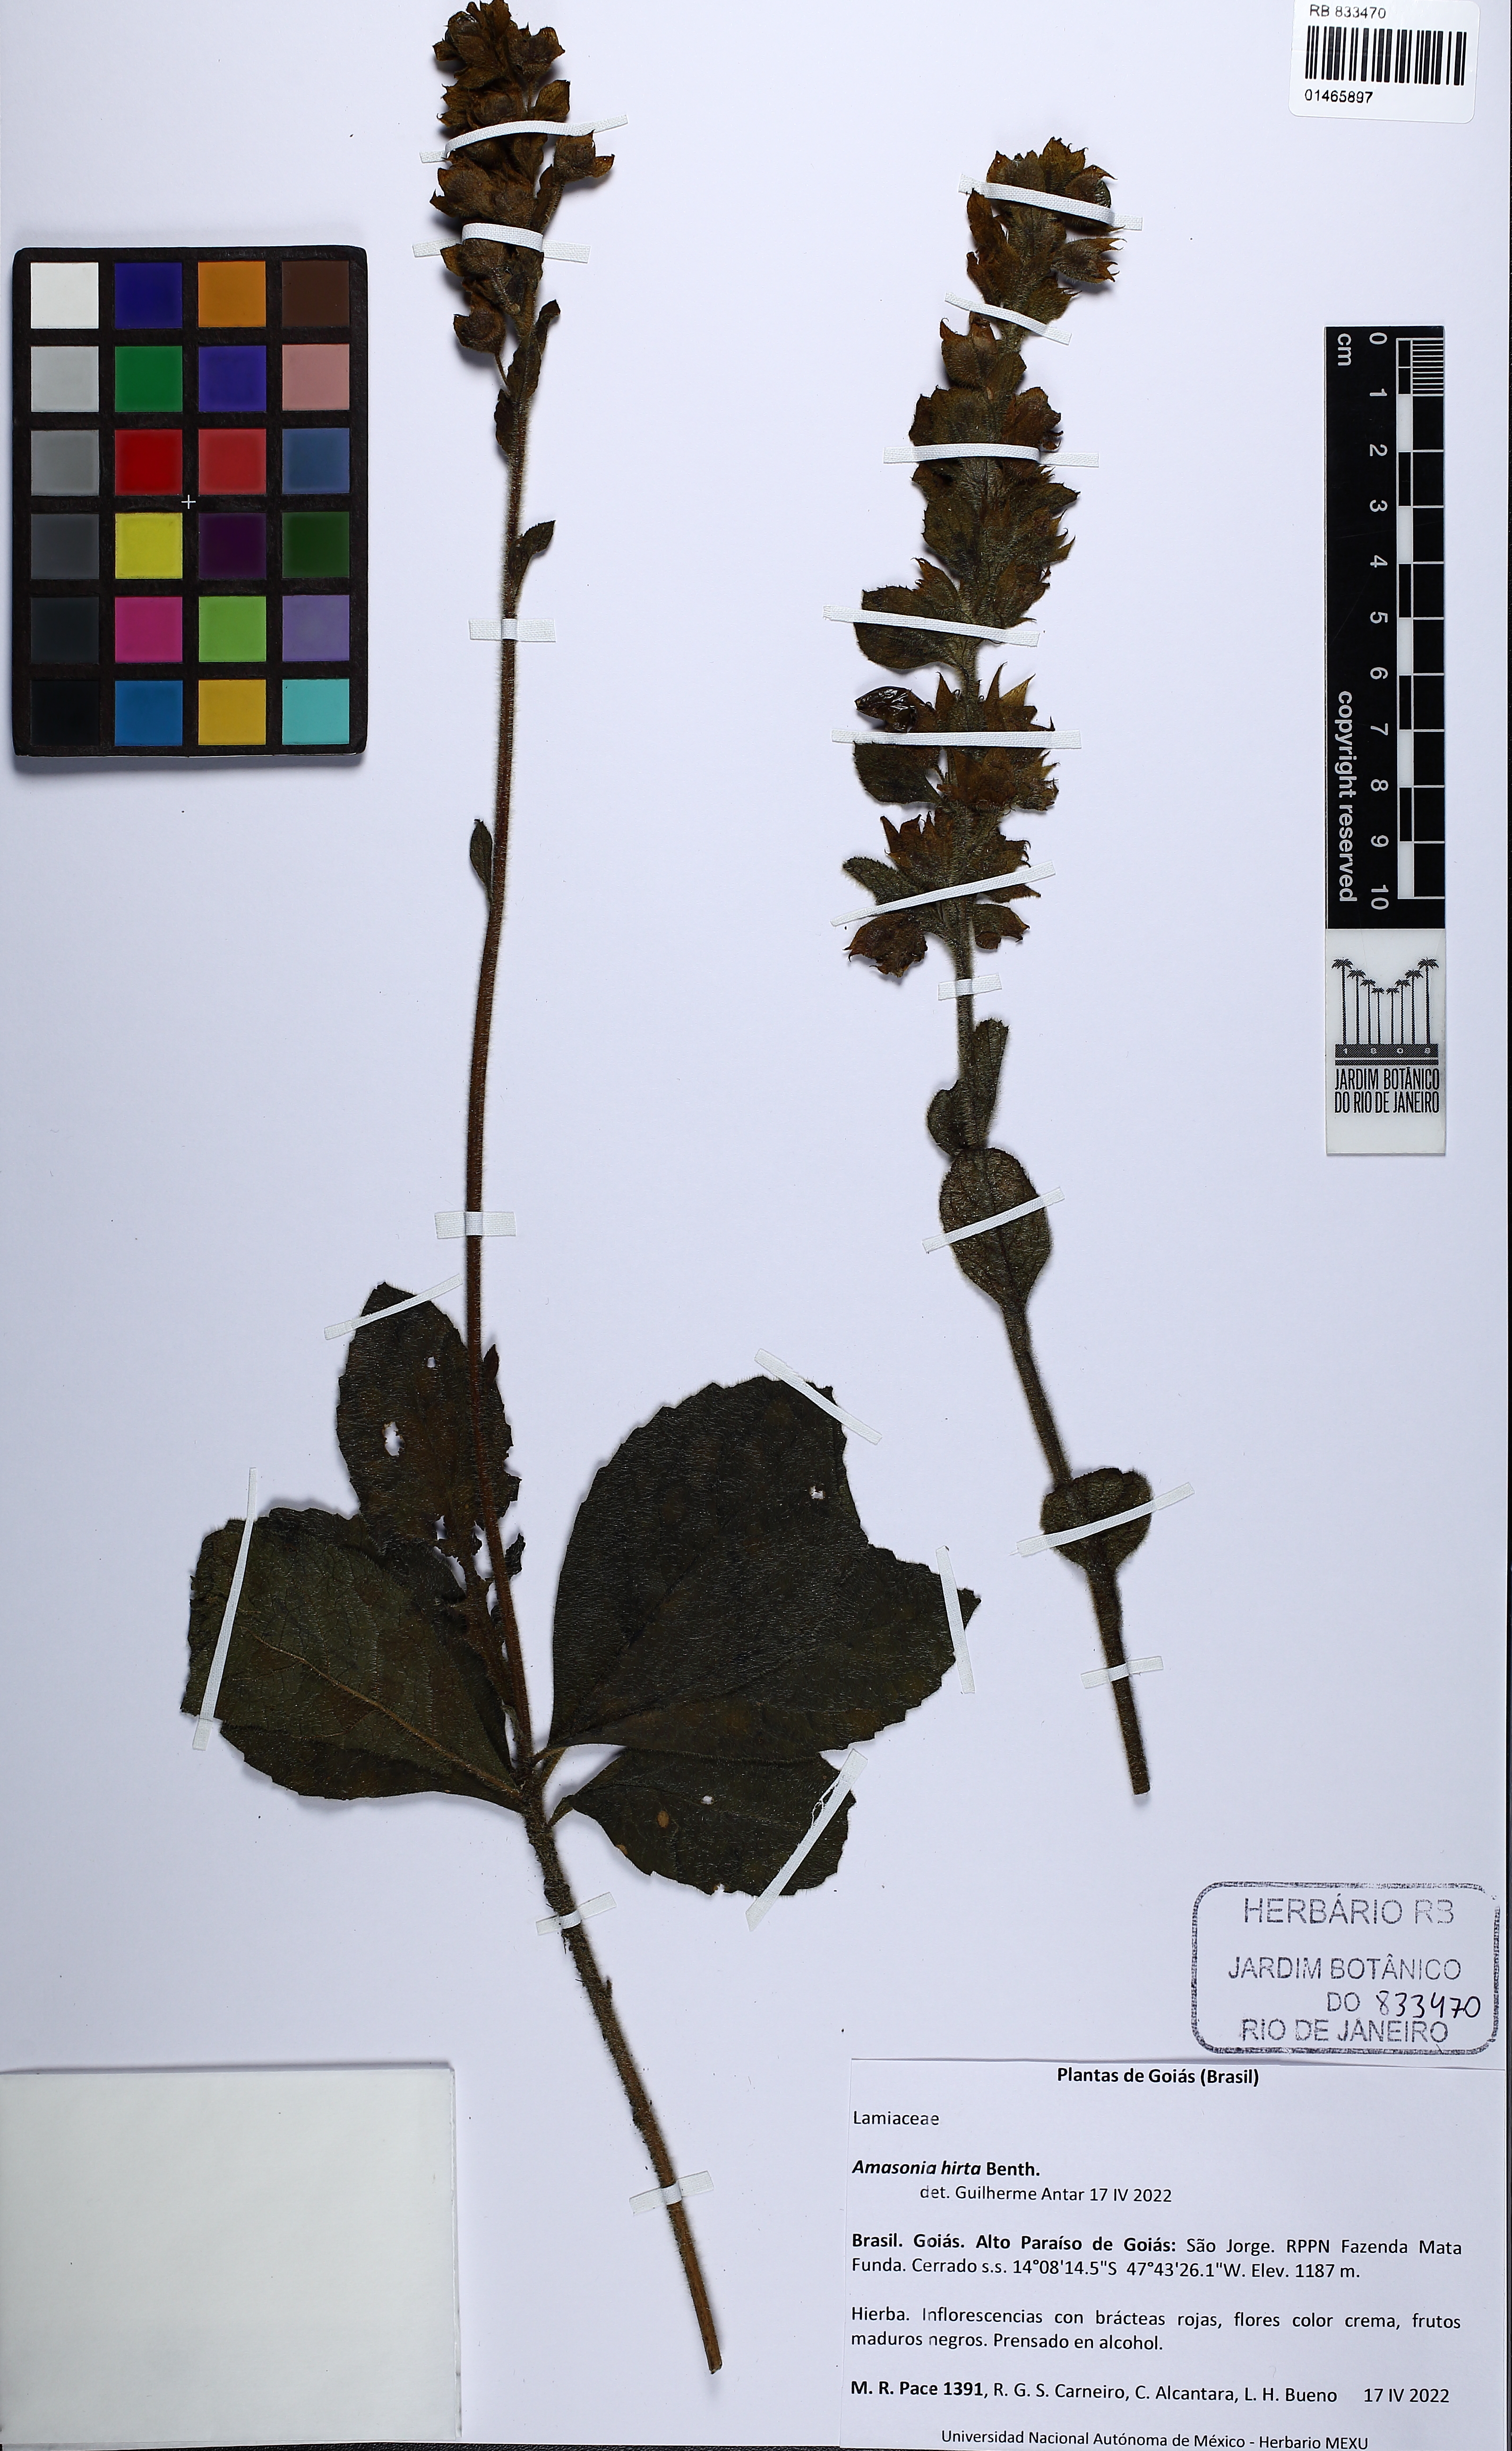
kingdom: Plantae
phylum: Tracheophyta
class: Magnoliopsida
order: Lamiales
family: Lamiaceae
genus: Amasonia
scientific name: Amasonia hirta
